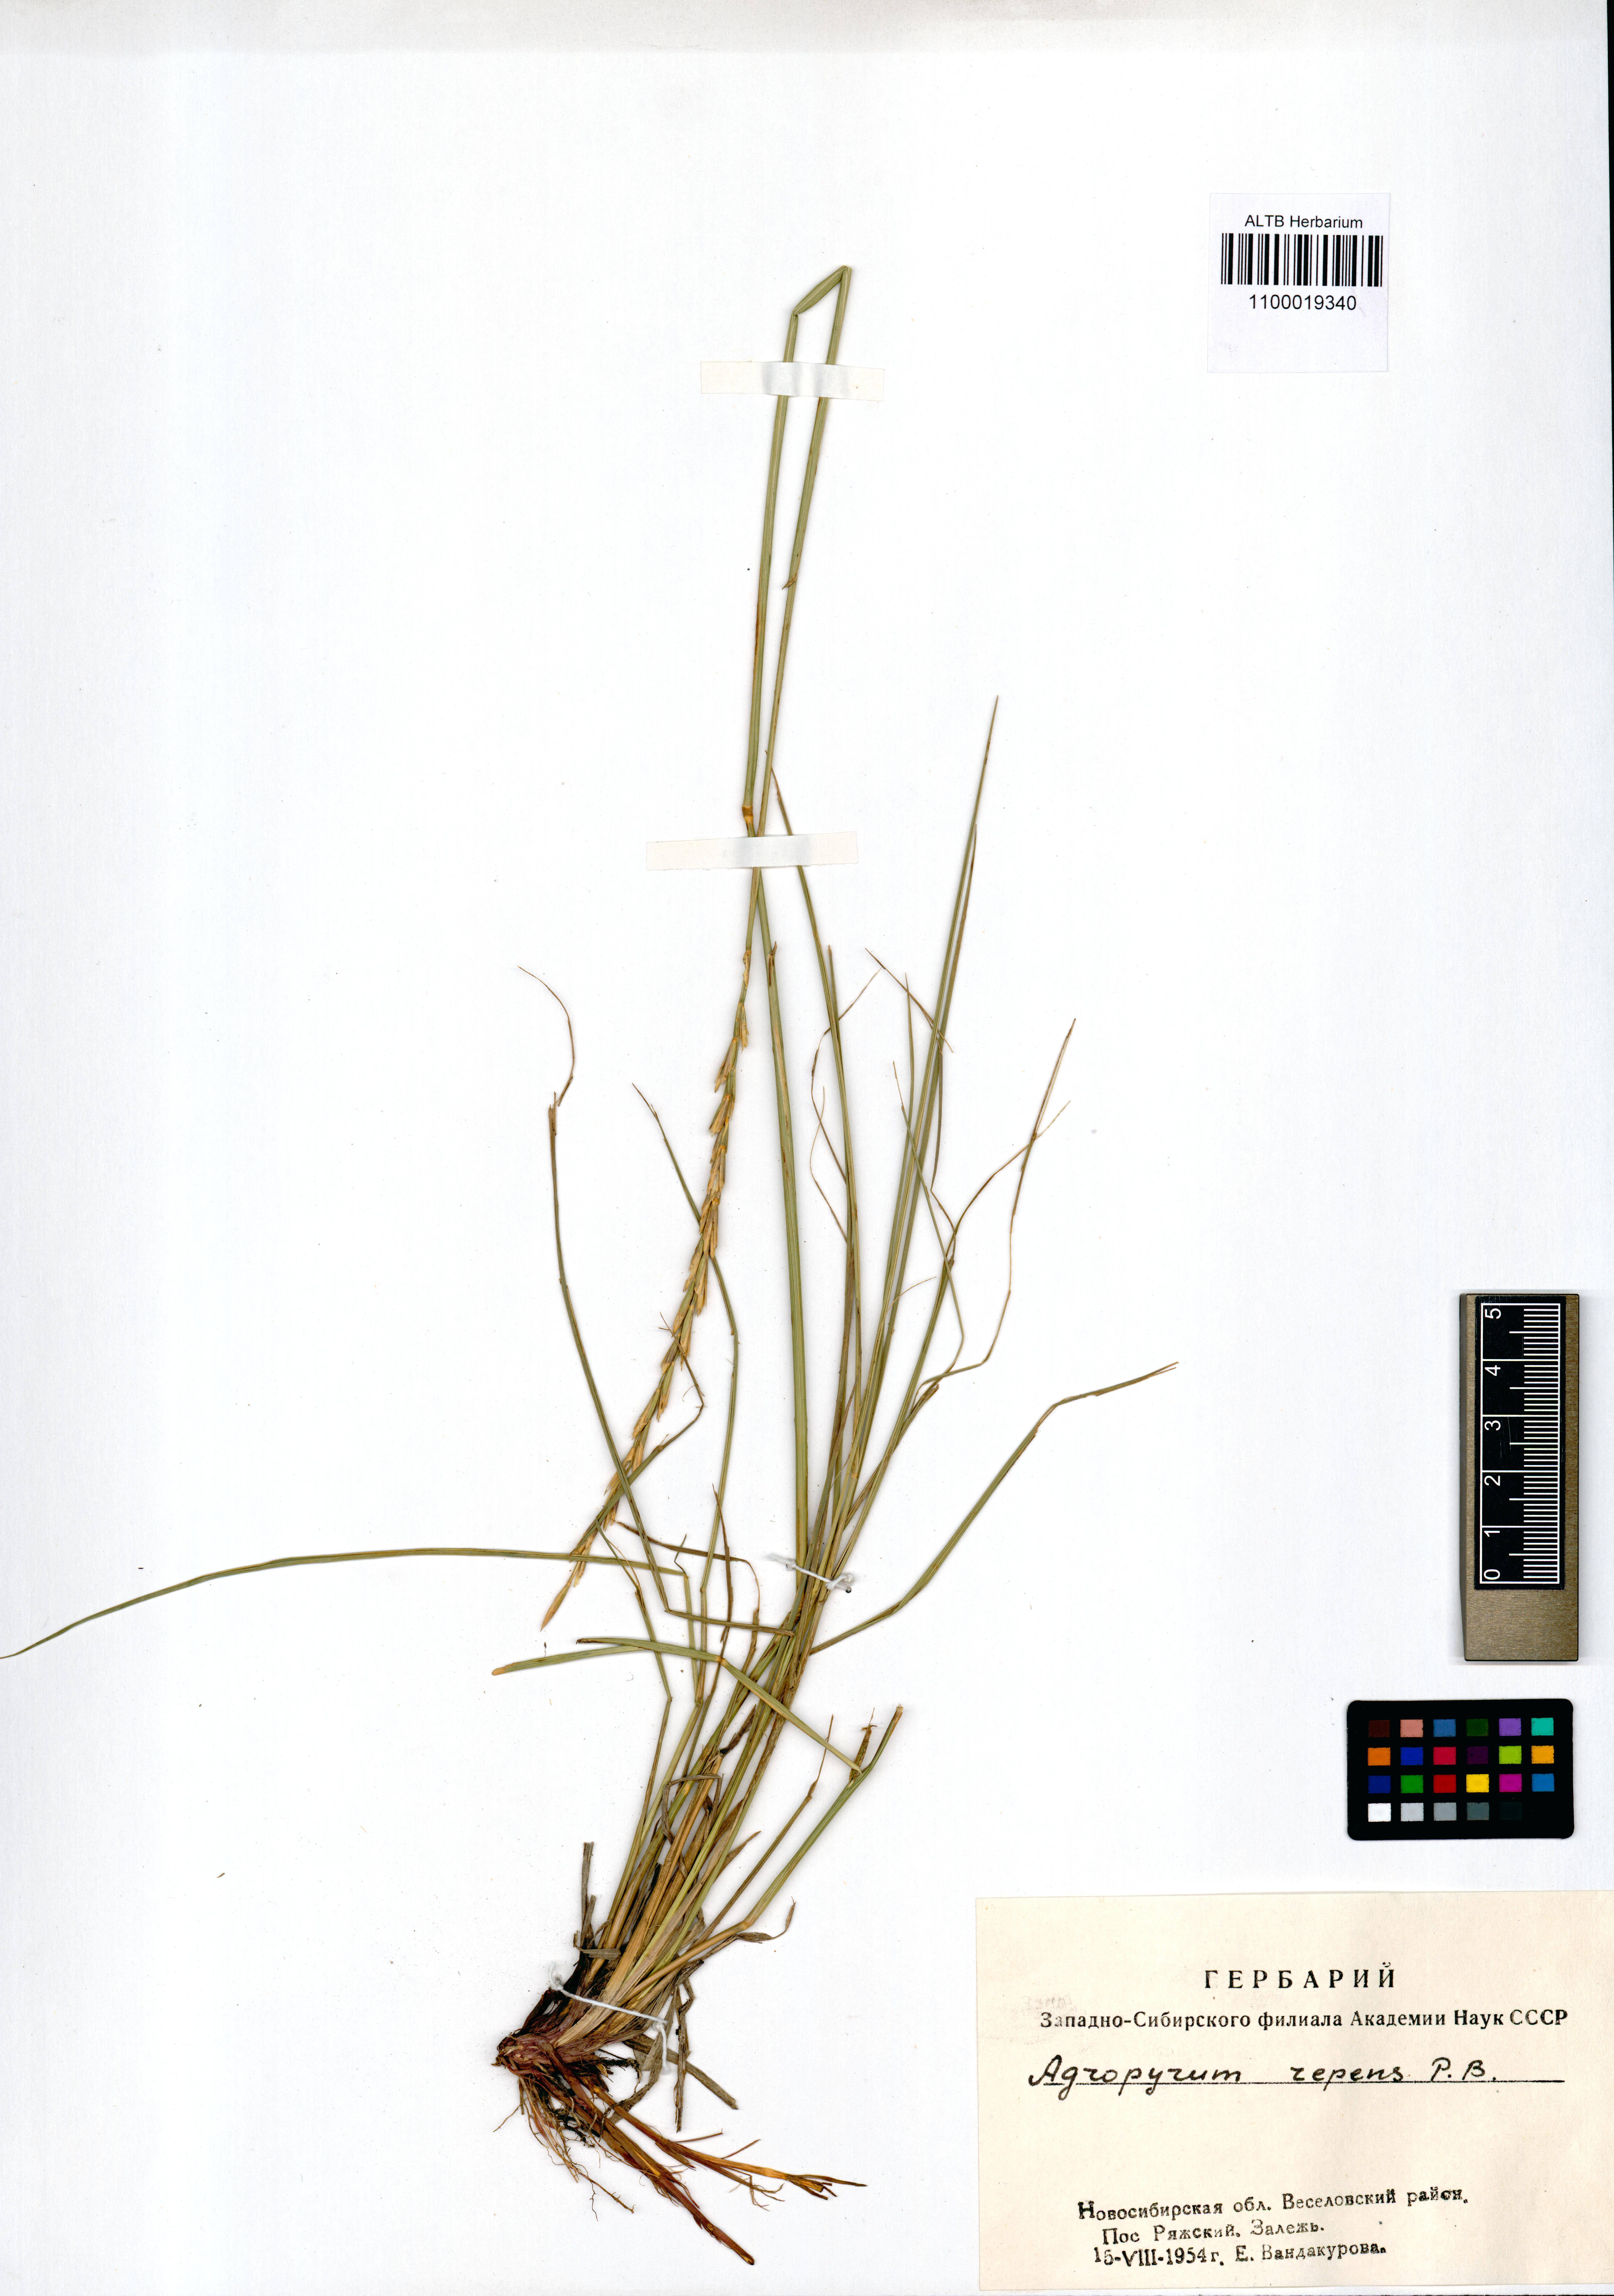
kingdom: Plantae
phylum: Tracheophyta
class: Liliopsida
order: Poales
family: Poaceae
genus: Elymus
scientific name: Elymus repens
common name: Quackgrass
